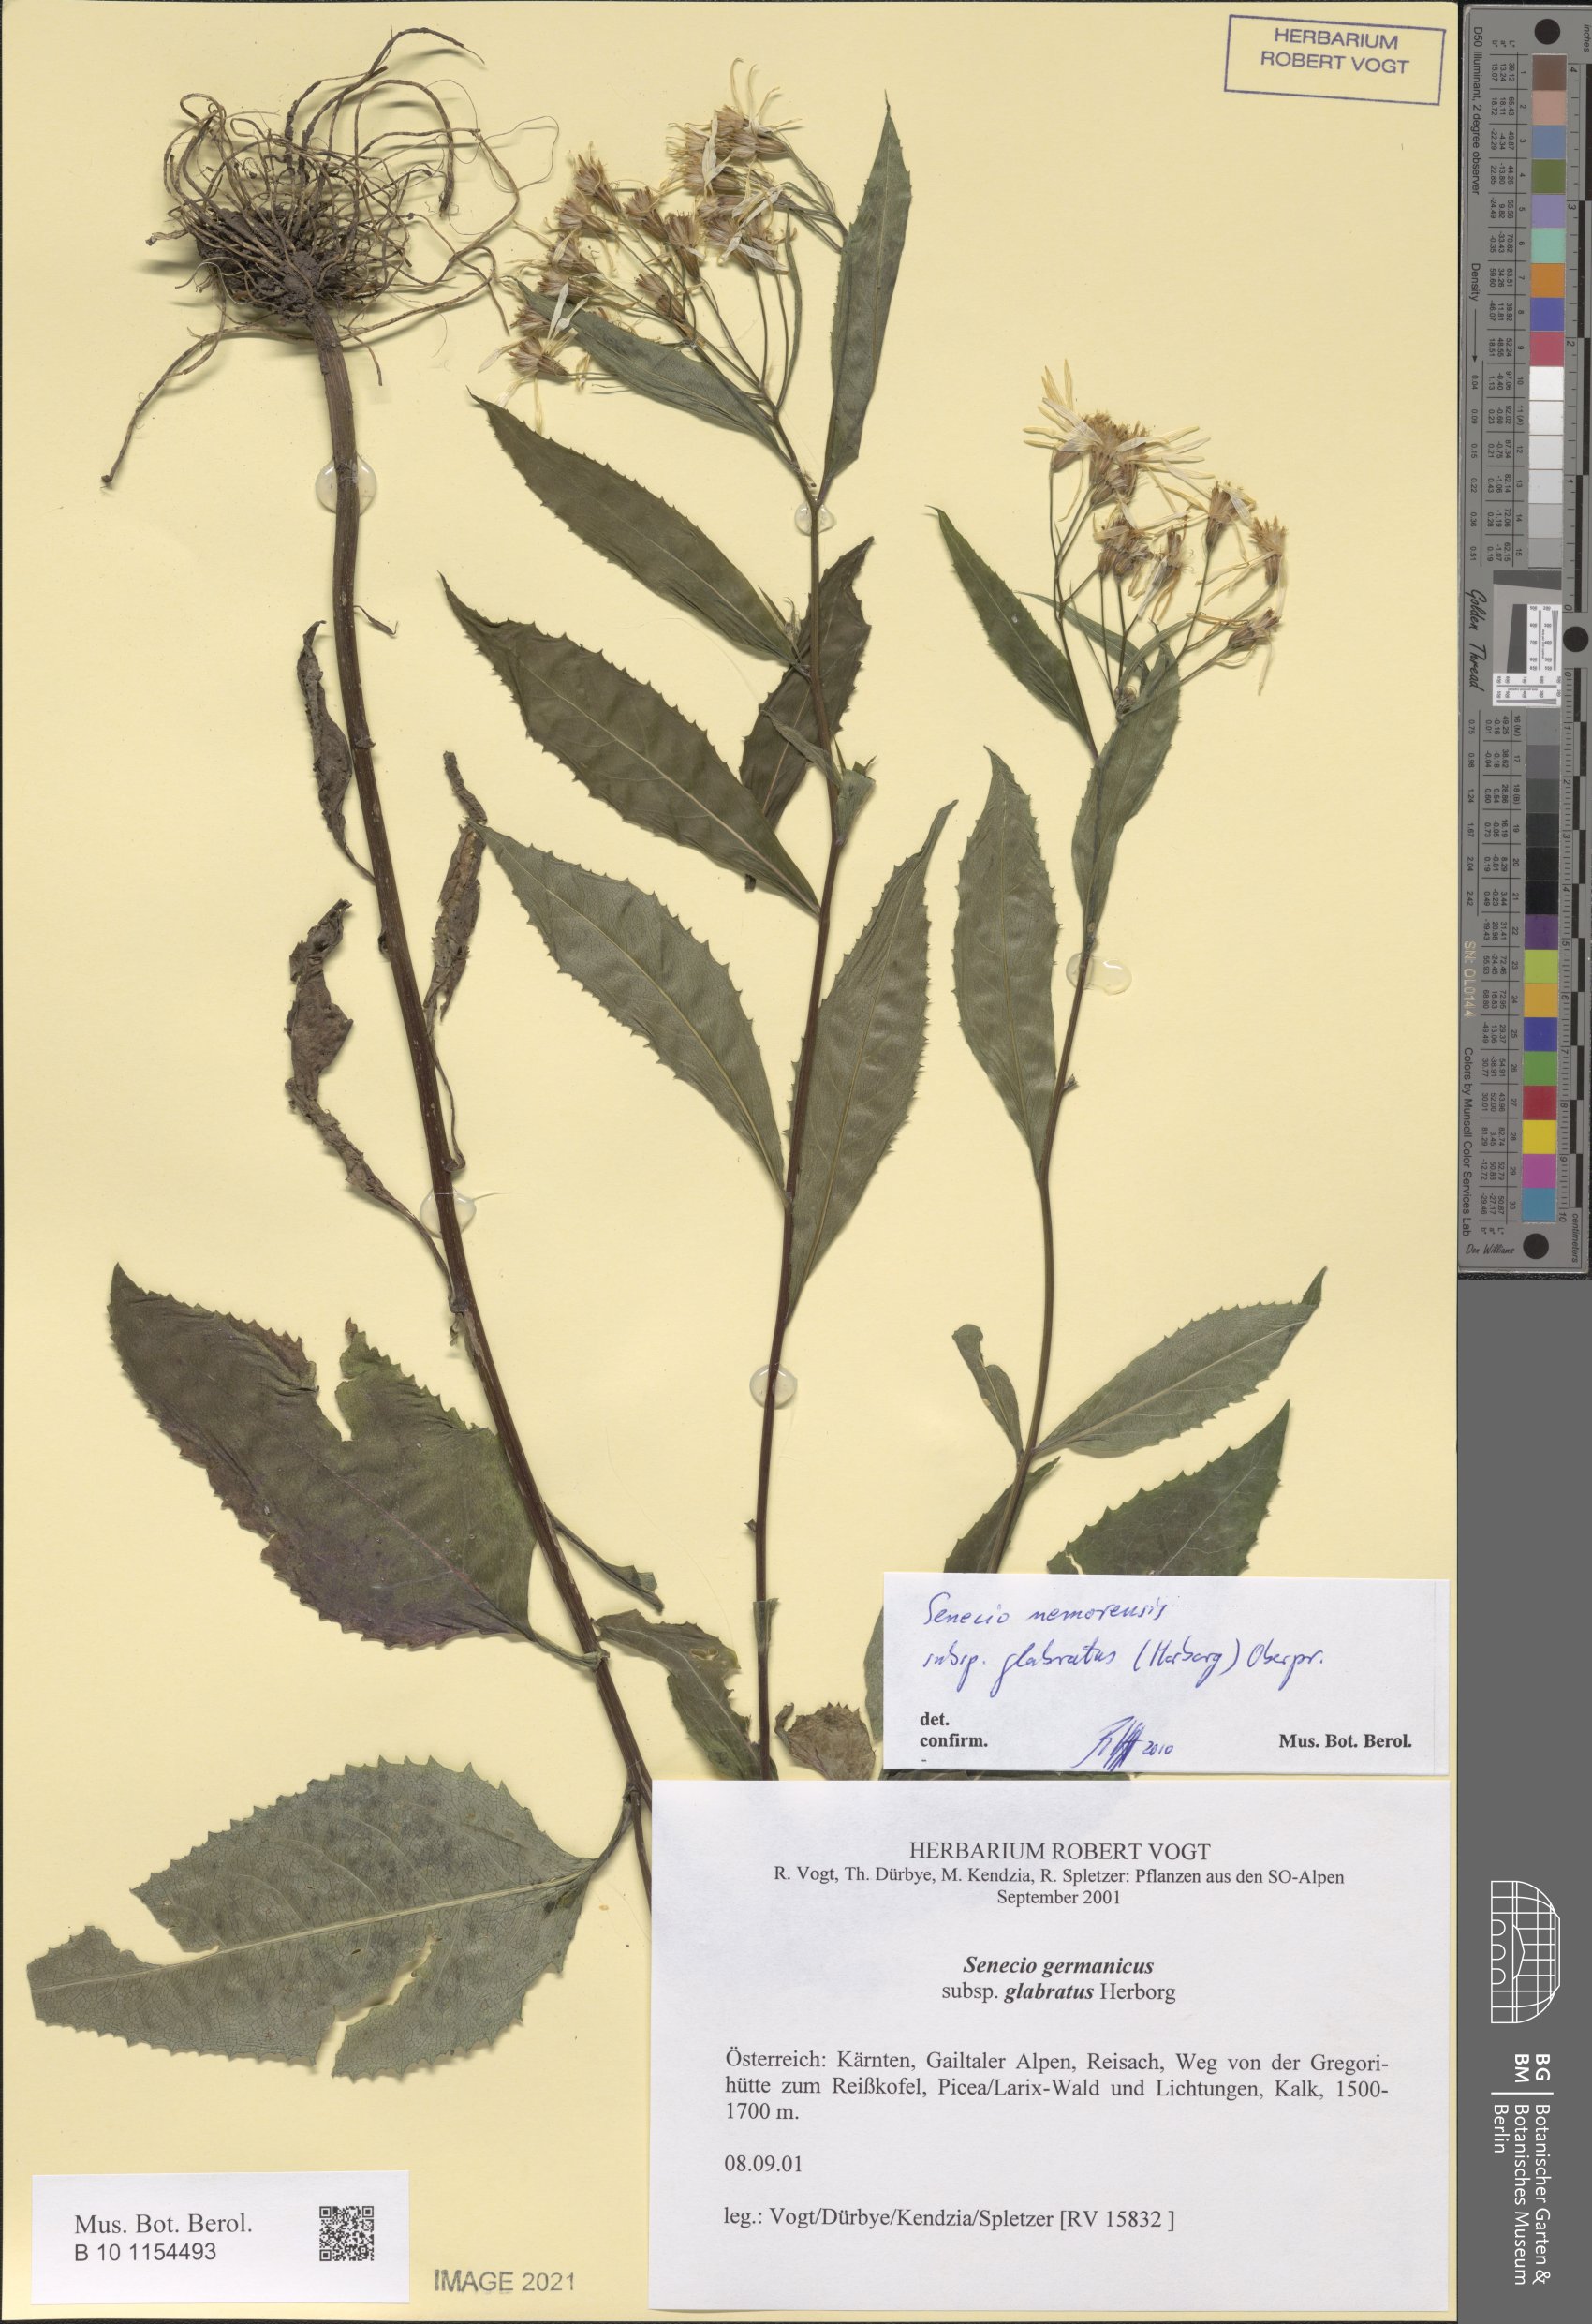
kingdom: Plantae
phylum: Tracheophyta
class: Magnoliopsida
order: Asterales
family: Asteraceae
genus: Senecio
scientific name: Senecio germanicus
